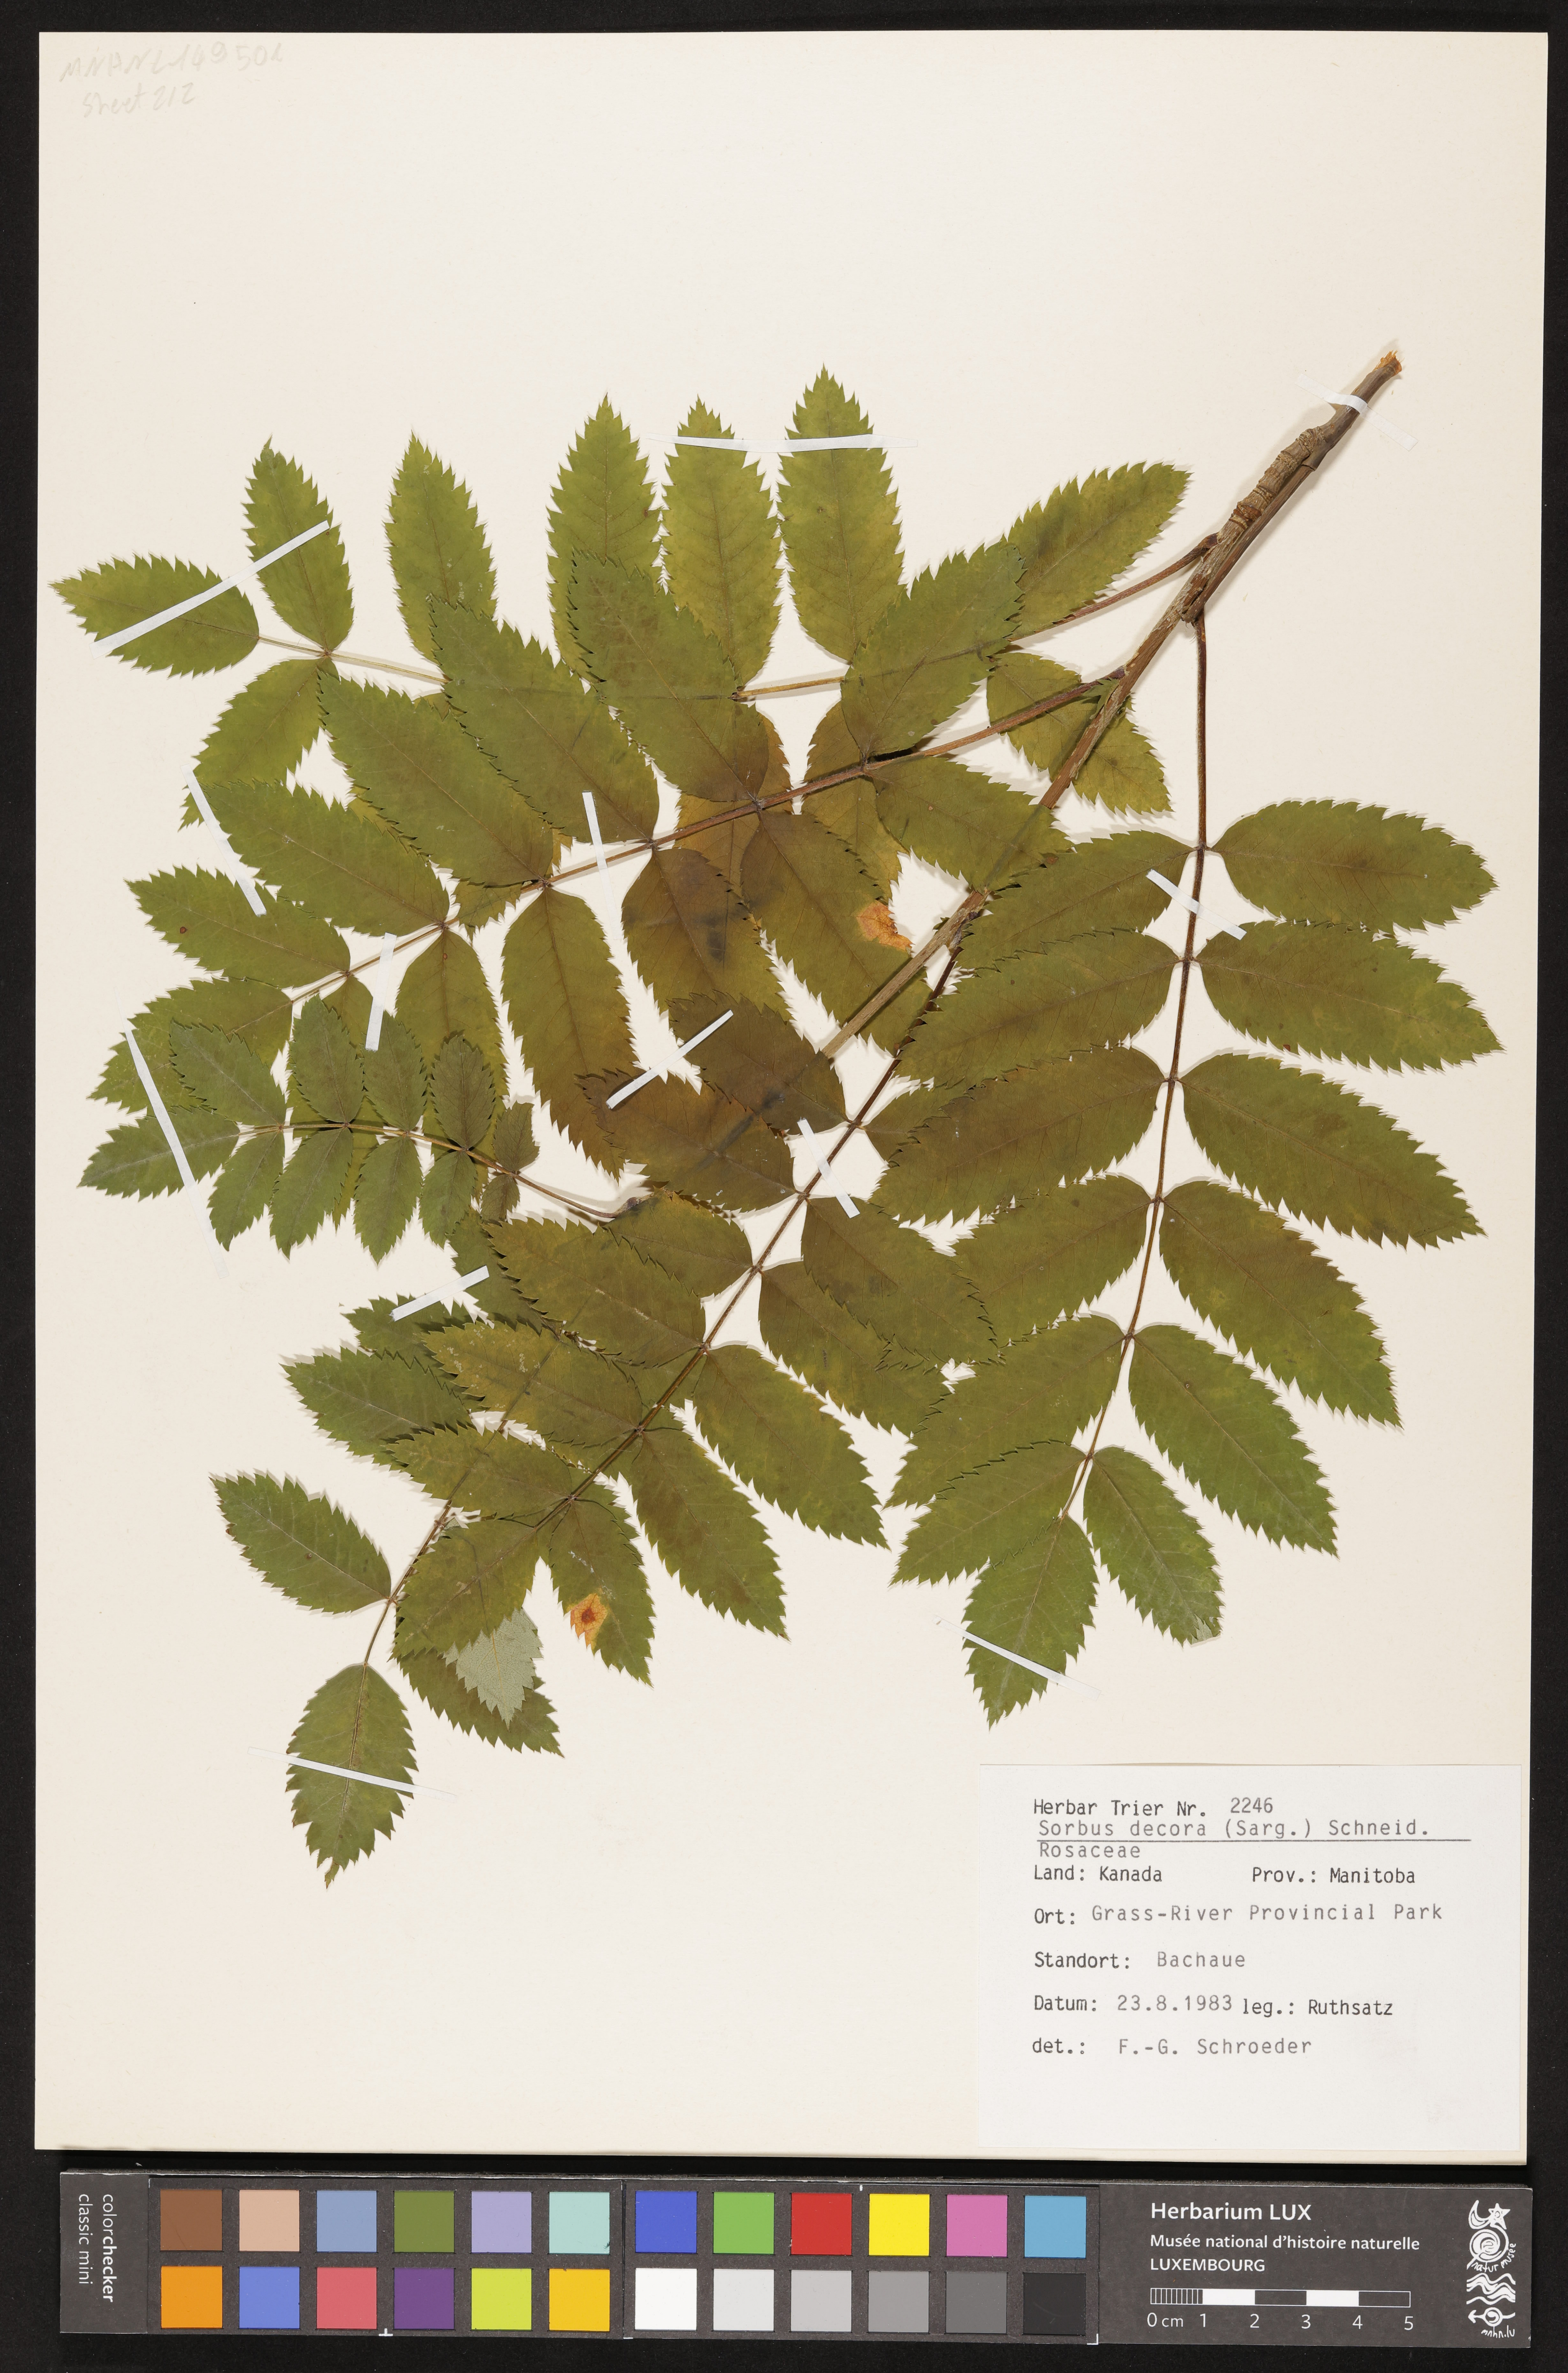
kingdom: Plantae
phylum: Tracheophyta
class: Magnoliopsida
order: Rosales
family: Rosaceae
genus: Sorbus
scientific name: Sorbus decora
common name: Northern mountain-ash
